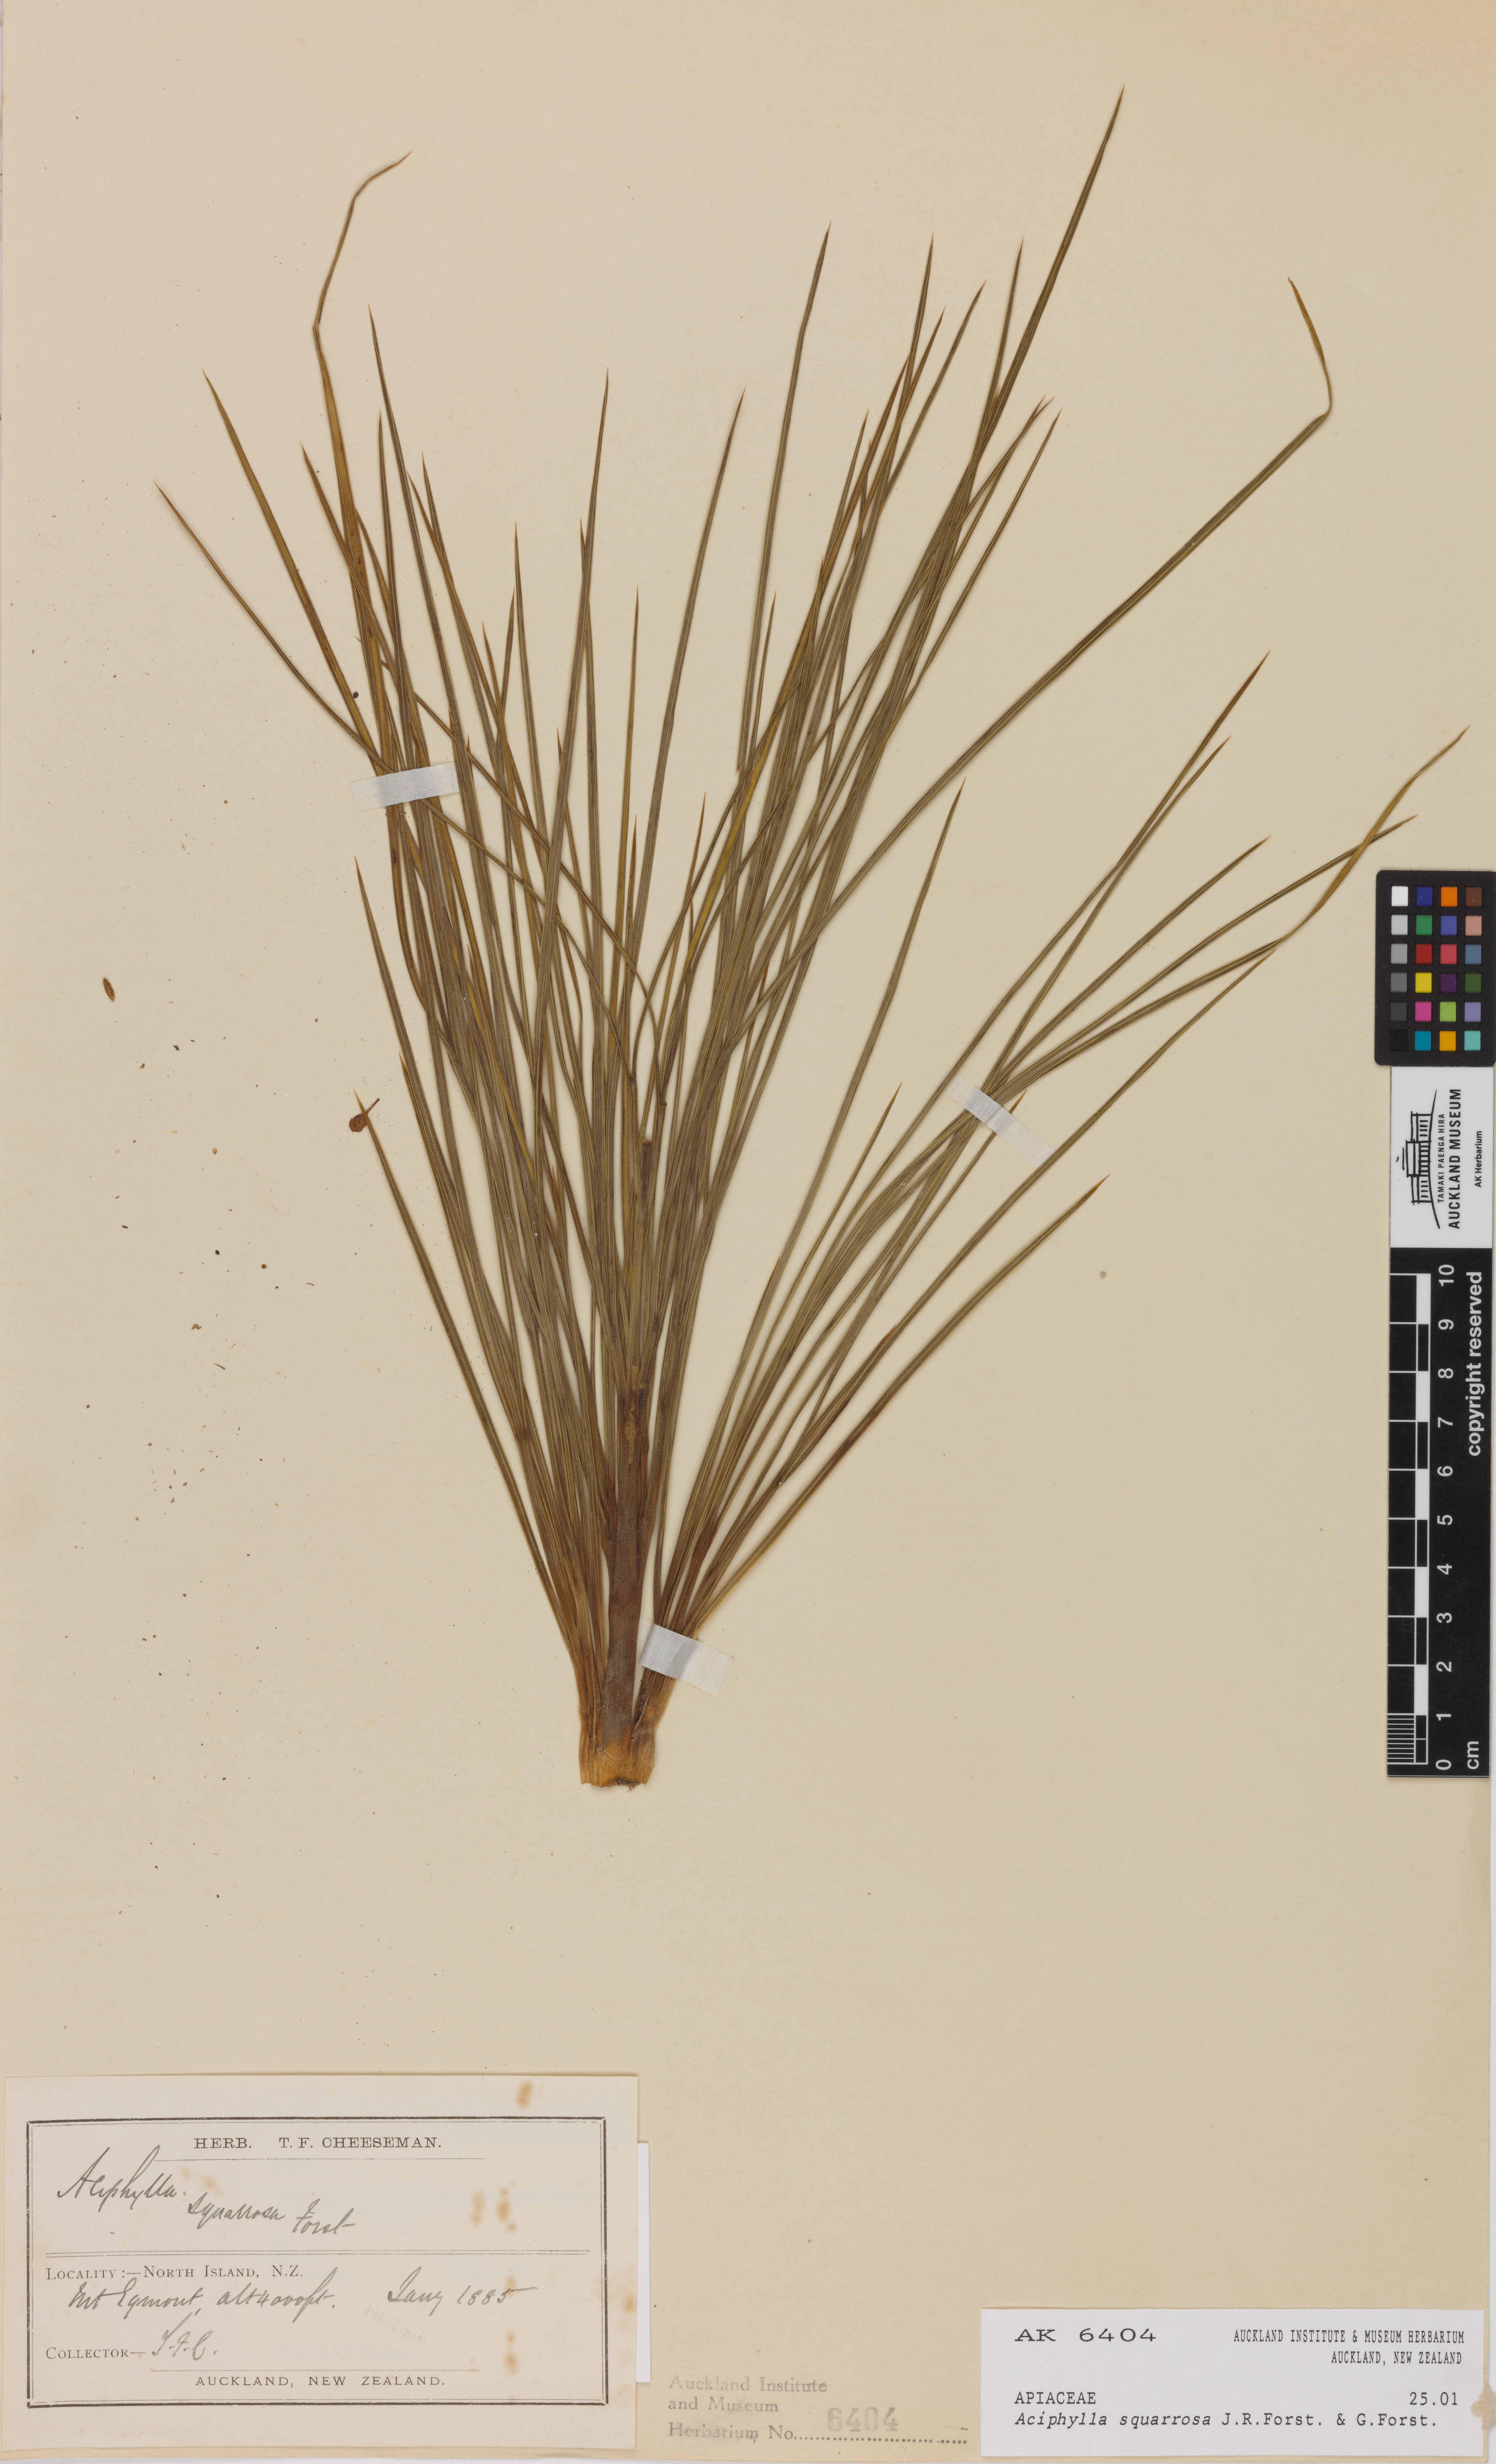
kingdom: Plantae
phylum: Tracheophyta
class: Magnoliopsida
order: Apiales
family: Apiaceae
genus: Aciphylla
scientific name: Aciphylla squarrosa
